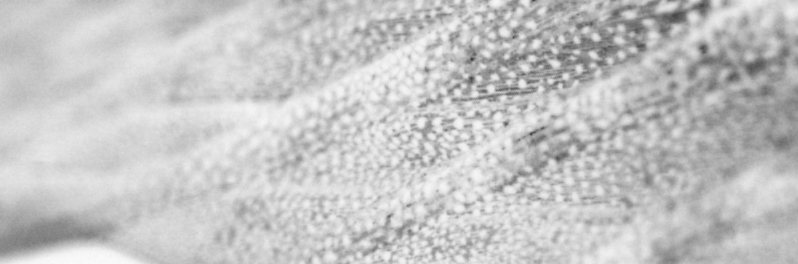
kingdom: Animalia
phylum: Chordata
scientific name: Chordata
